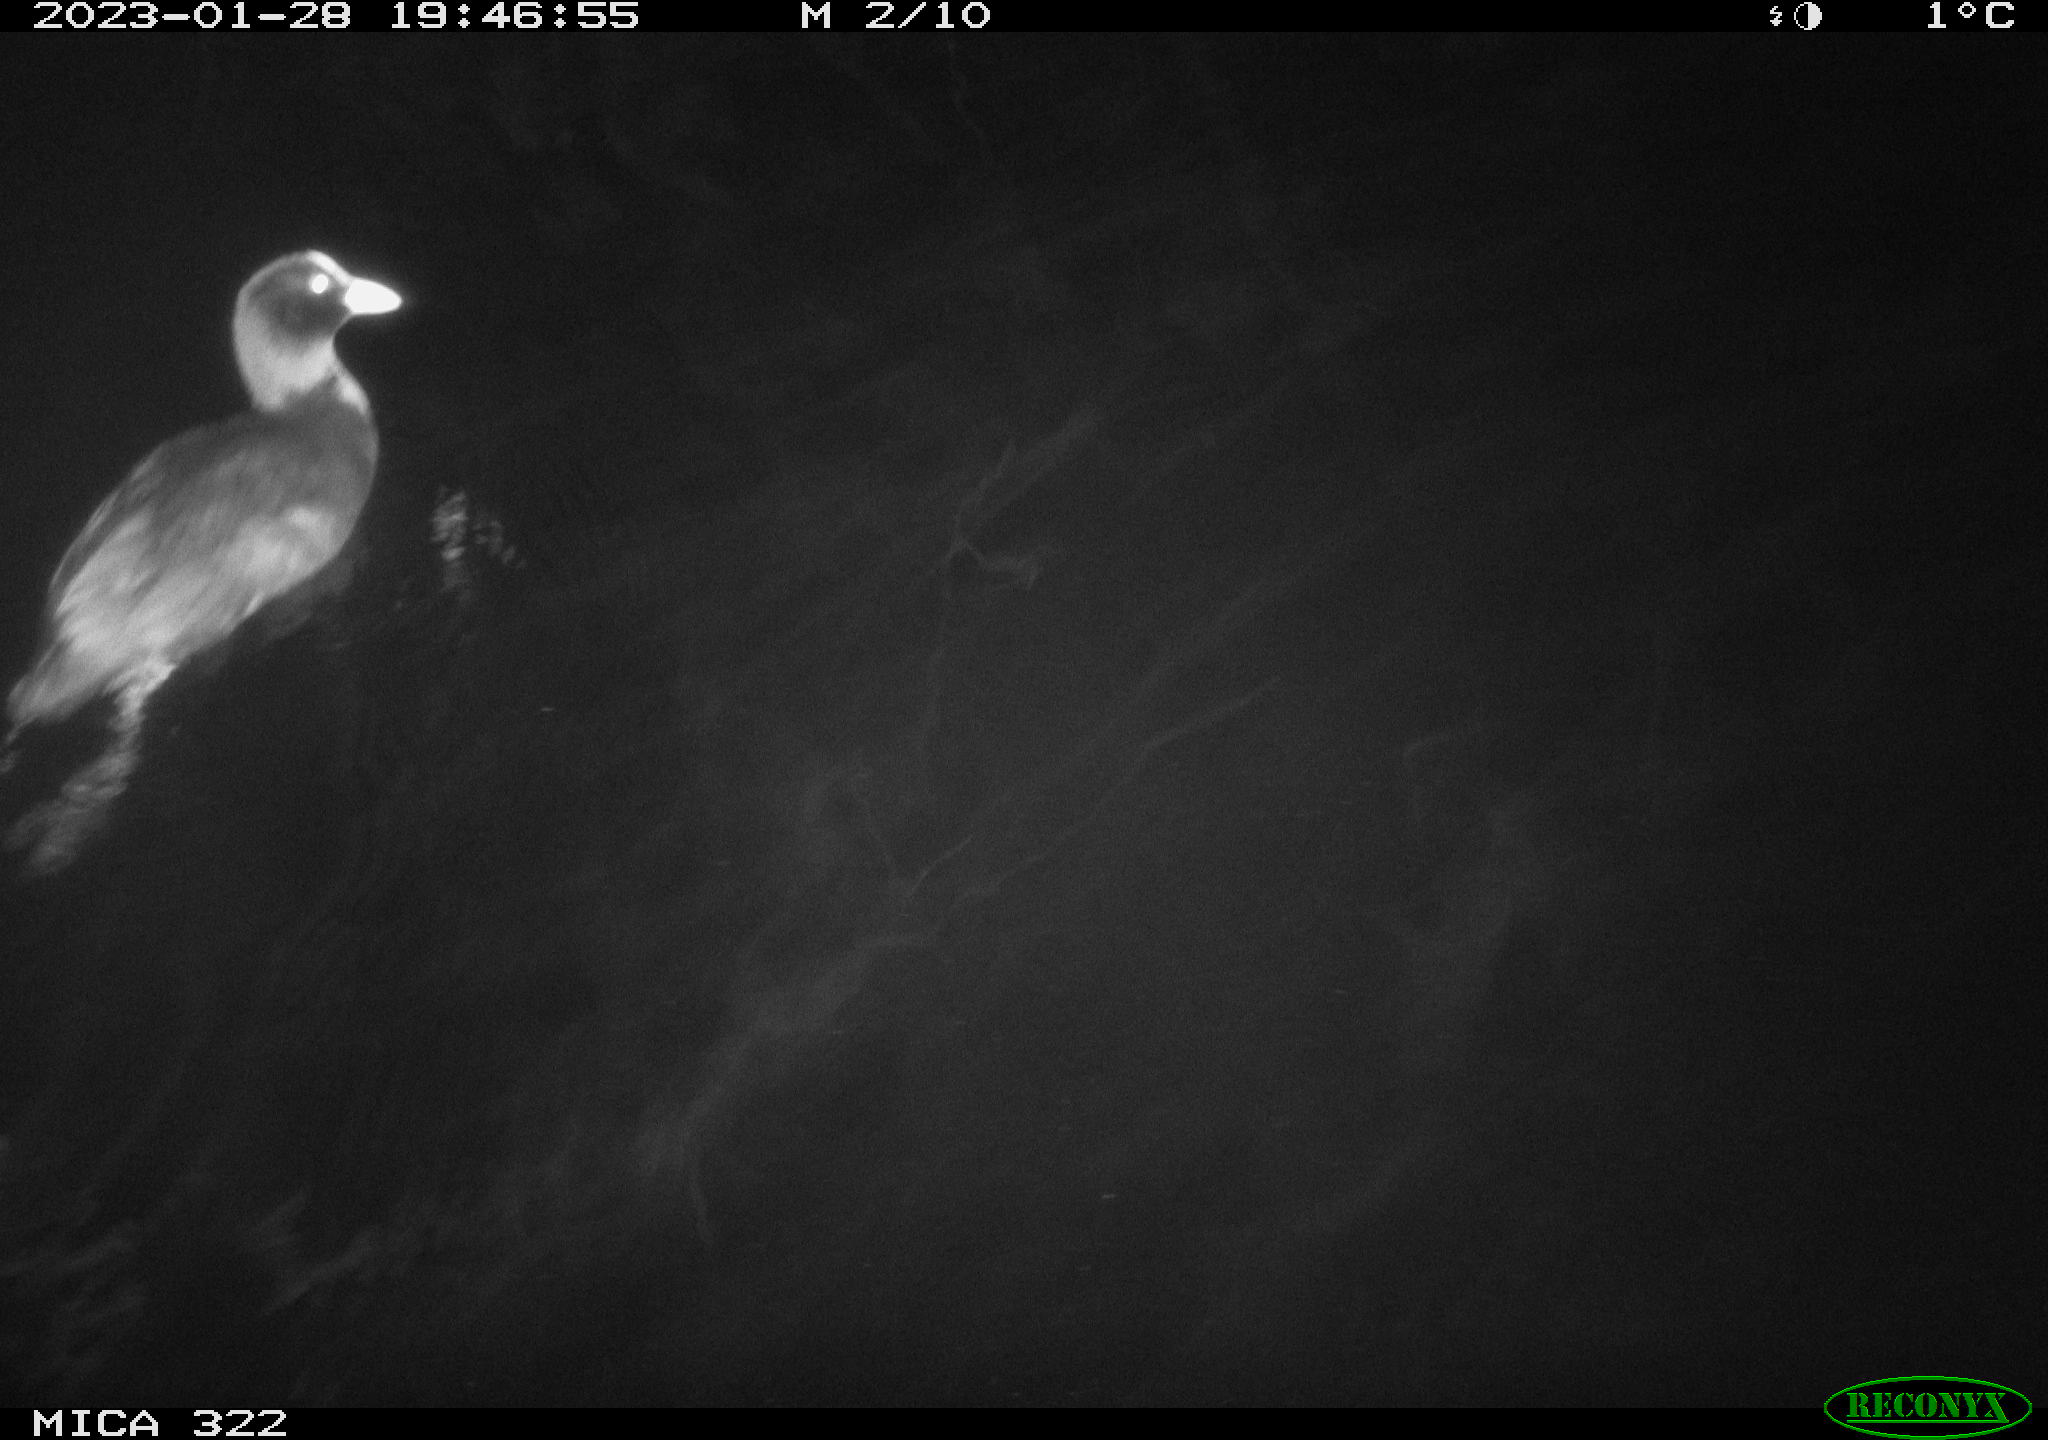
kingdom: Animalia
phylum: Chordata
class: Aves
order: Gruiformes
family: Rallidae
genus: Fulica
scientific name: Fulica atra
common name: Eurasian coot
